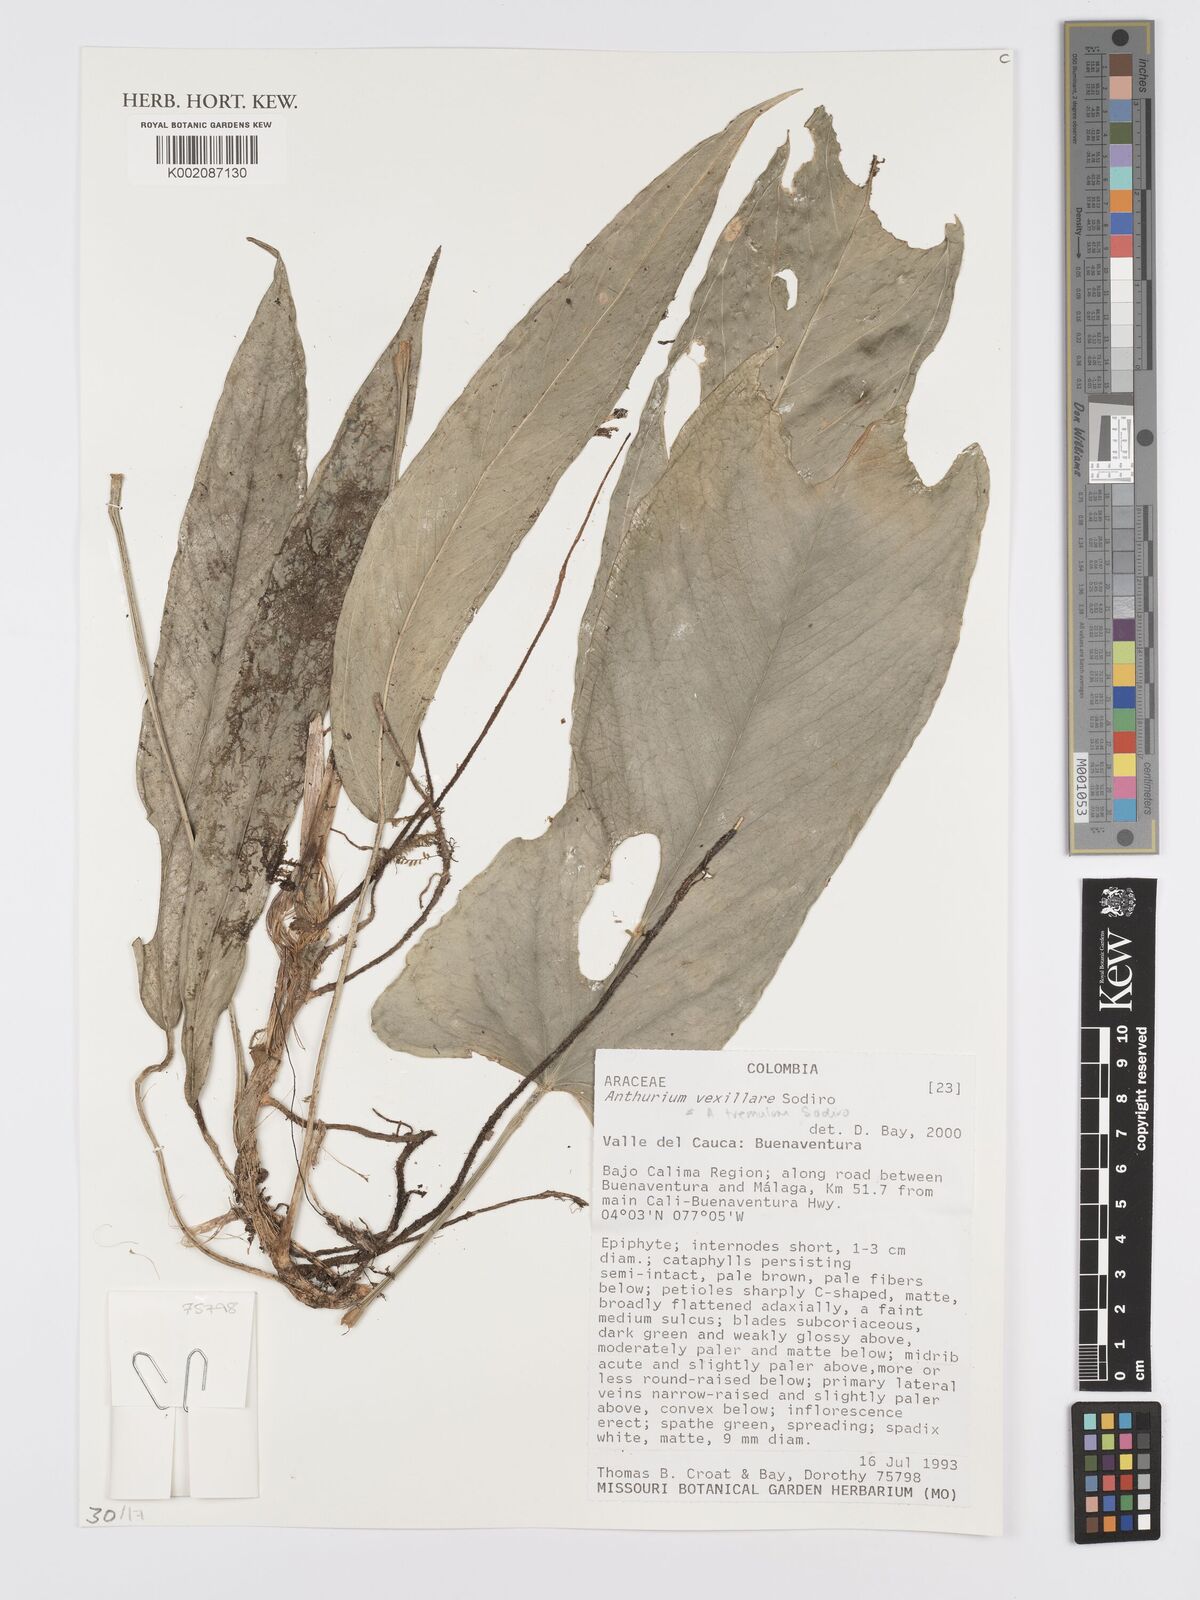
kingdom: Plantae
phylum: Tracheophyta
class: Liliopsida
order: Alismatales
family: Araceae
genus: Anthurium
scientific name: Anthurium tremulum
